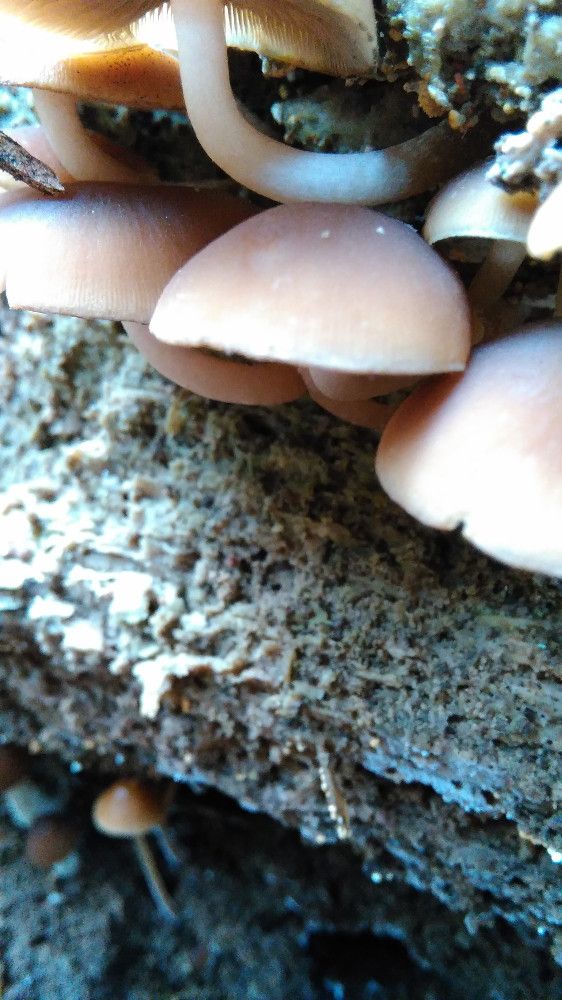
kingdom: Fungi
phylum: Basidiomycota
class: Agaricomycetes
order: Agaricales
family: Psathyrellaceae
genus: Psathyrella
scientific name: Psathyrella piluliformis
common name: lysstokket mørkhat
